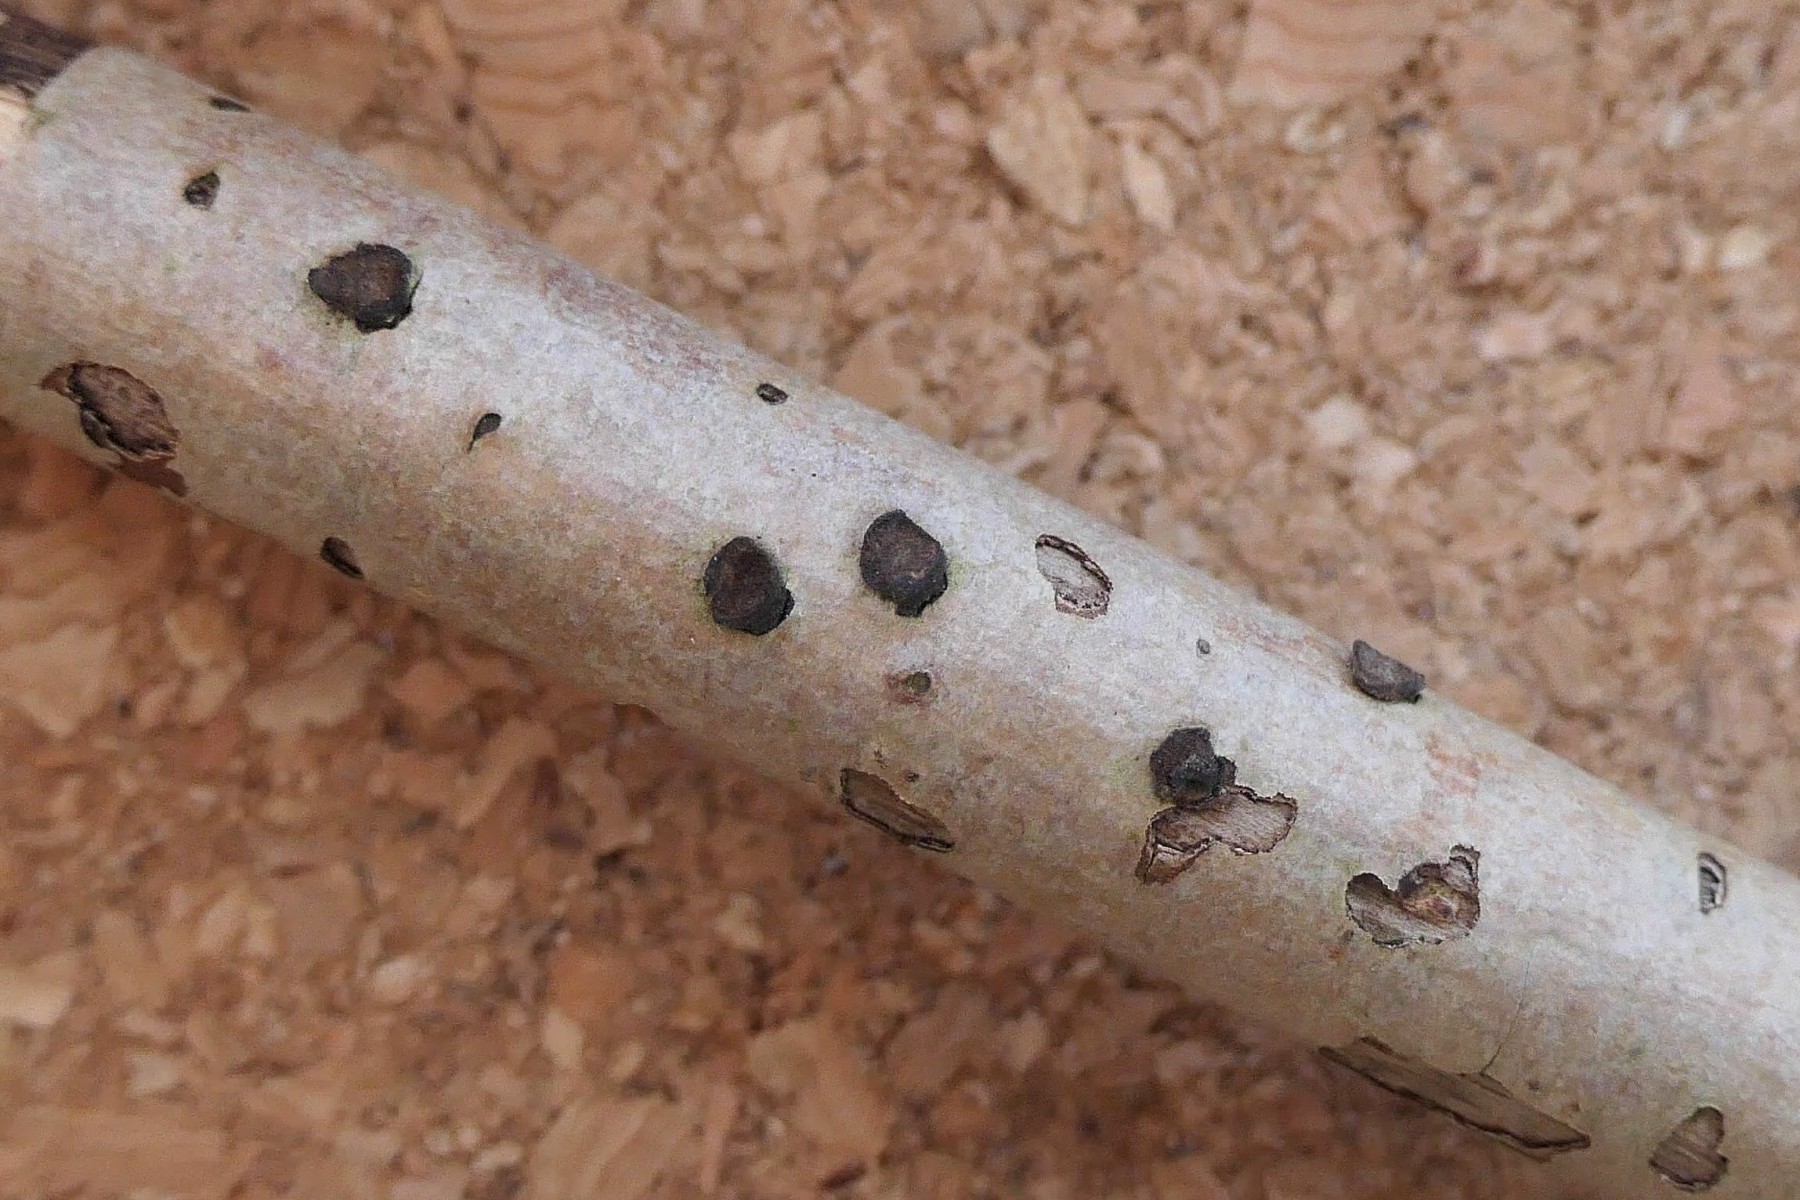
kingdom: Fungi
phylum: Ascomycota
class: Sordariomycetes
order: Xylariales
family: Hypoxylaceae
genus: Hypoxylon
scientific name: Hypoxylon fuscum
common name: kegleformet kulbær
